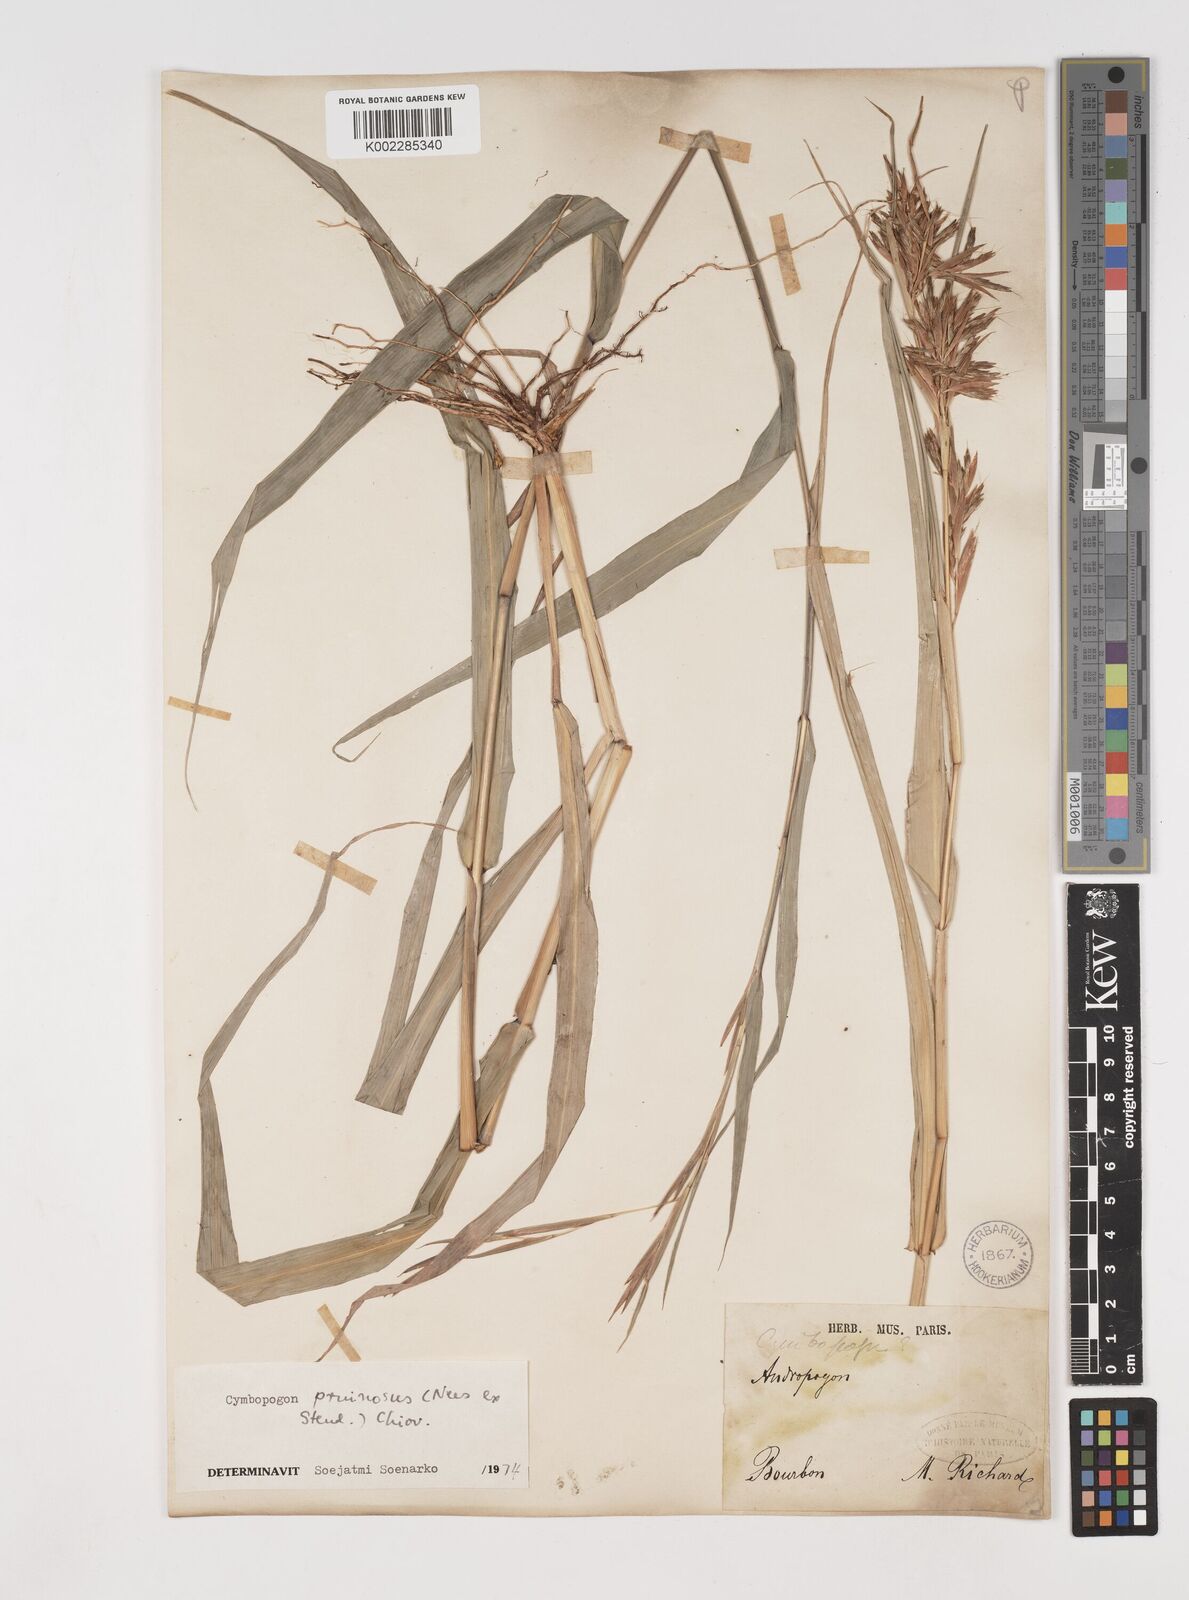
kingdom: Plantae
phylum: Tracheophyta
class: Liliopsida
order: Poales
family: Poaceae
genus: Cymbopogon
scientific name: Cymbopogon pruinosus
